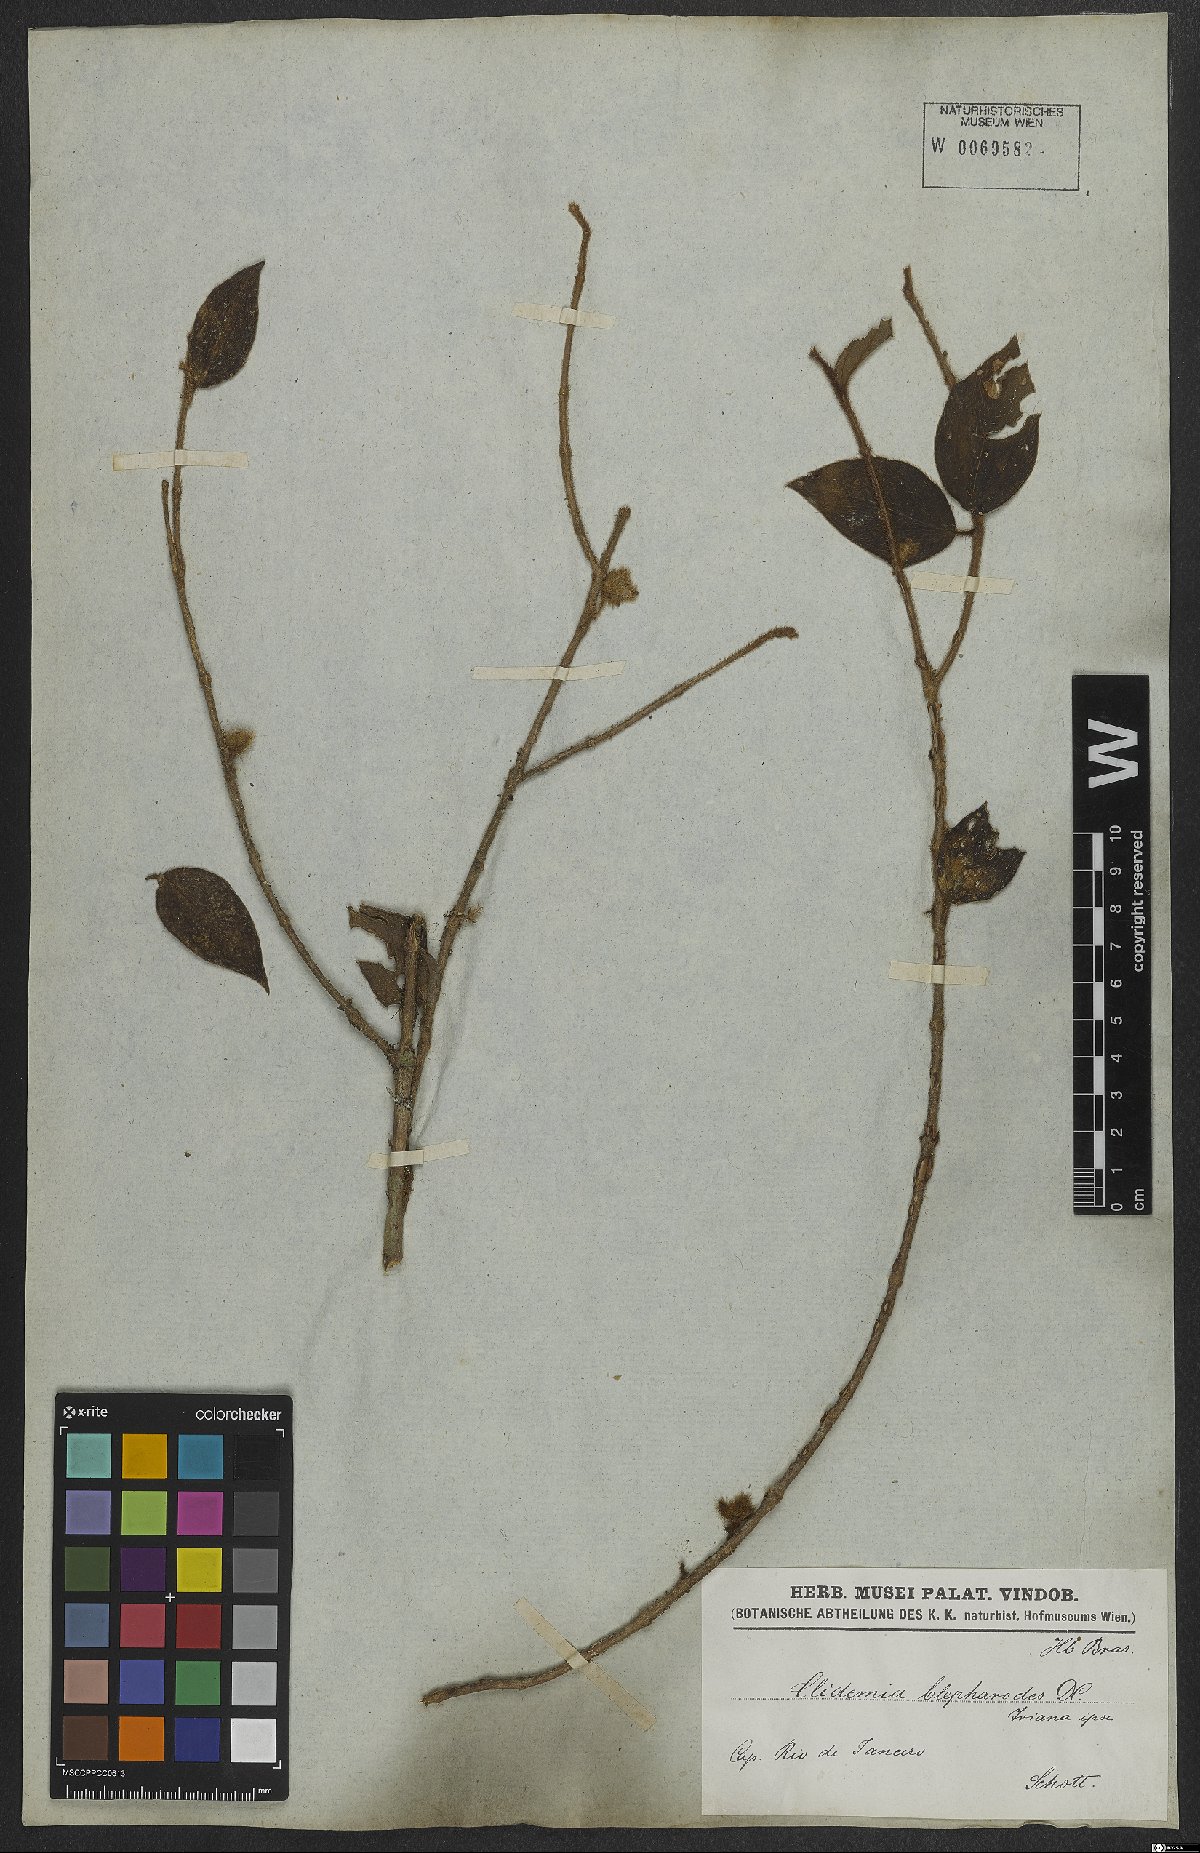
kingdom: Plantae
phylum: Tracheophyta
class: Magnoliopsida
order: Myrtales
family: Melastomataceae
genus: Miconia
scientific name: Miconia blepharodes
